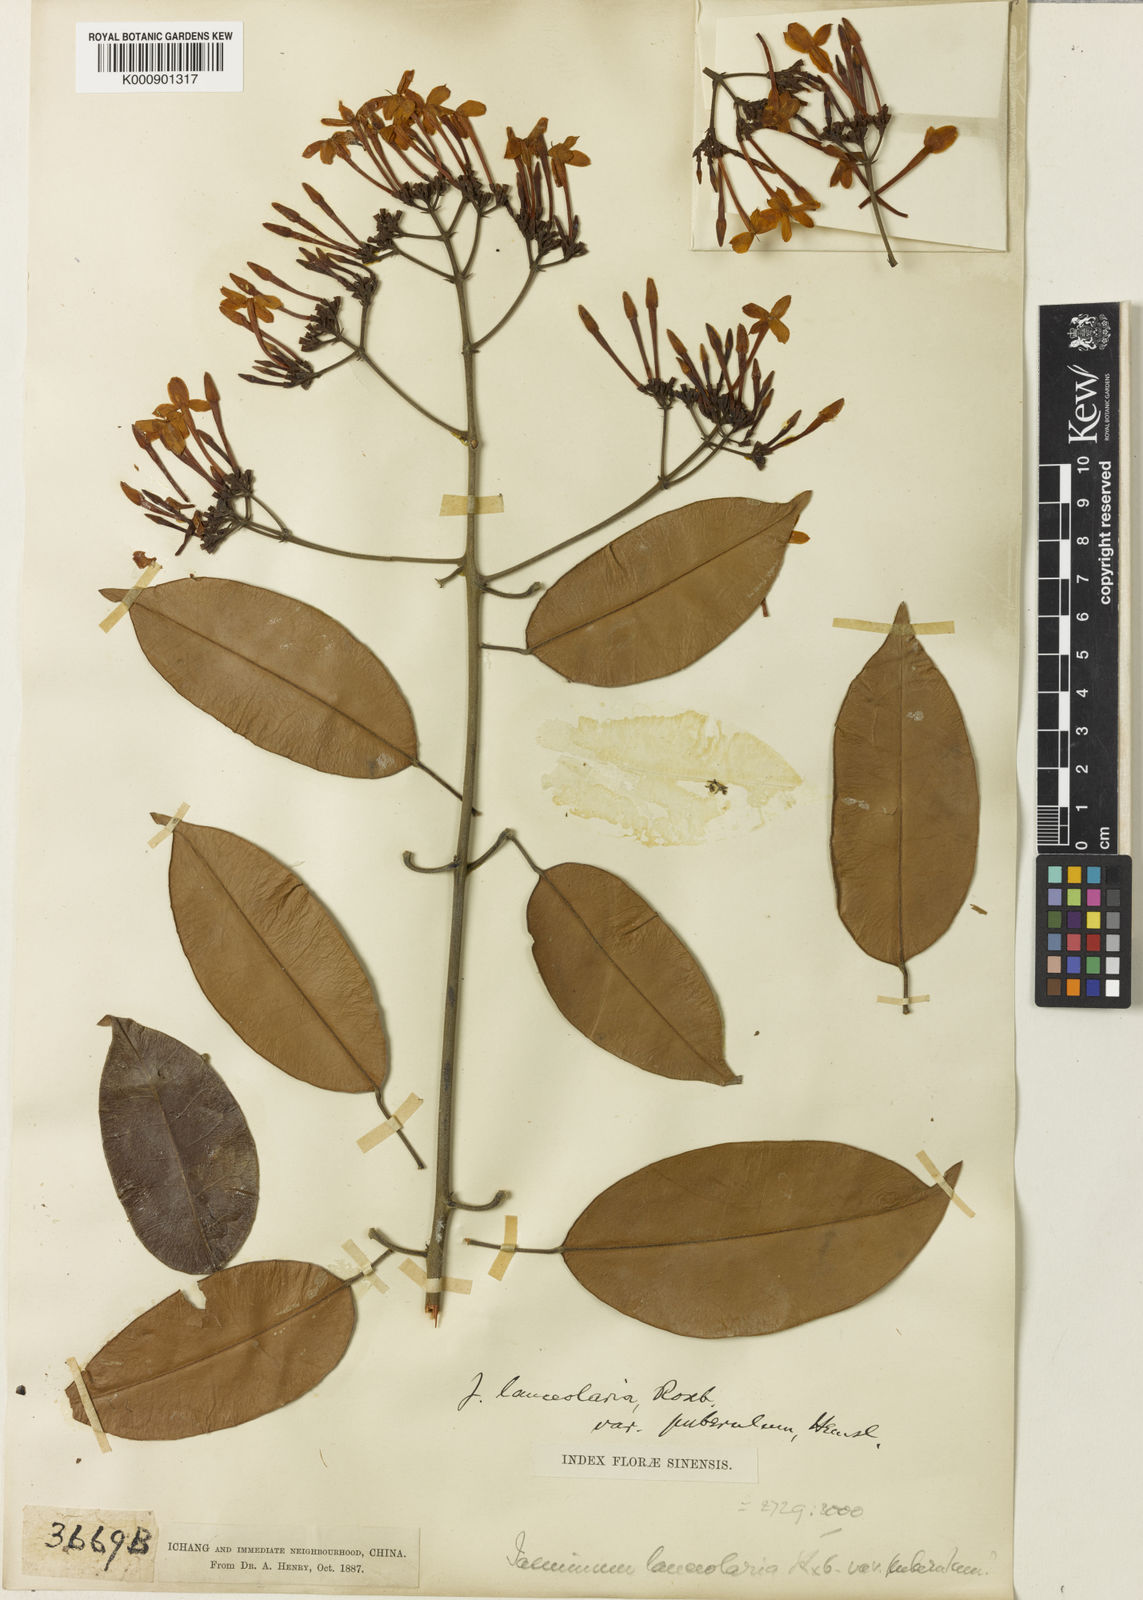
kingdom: Plantae
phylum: Tracheophyta
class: Magnoliopsida
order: Lamiales
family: Oleaceae
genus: Jasminum
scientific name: Jasminum lanceolaria
